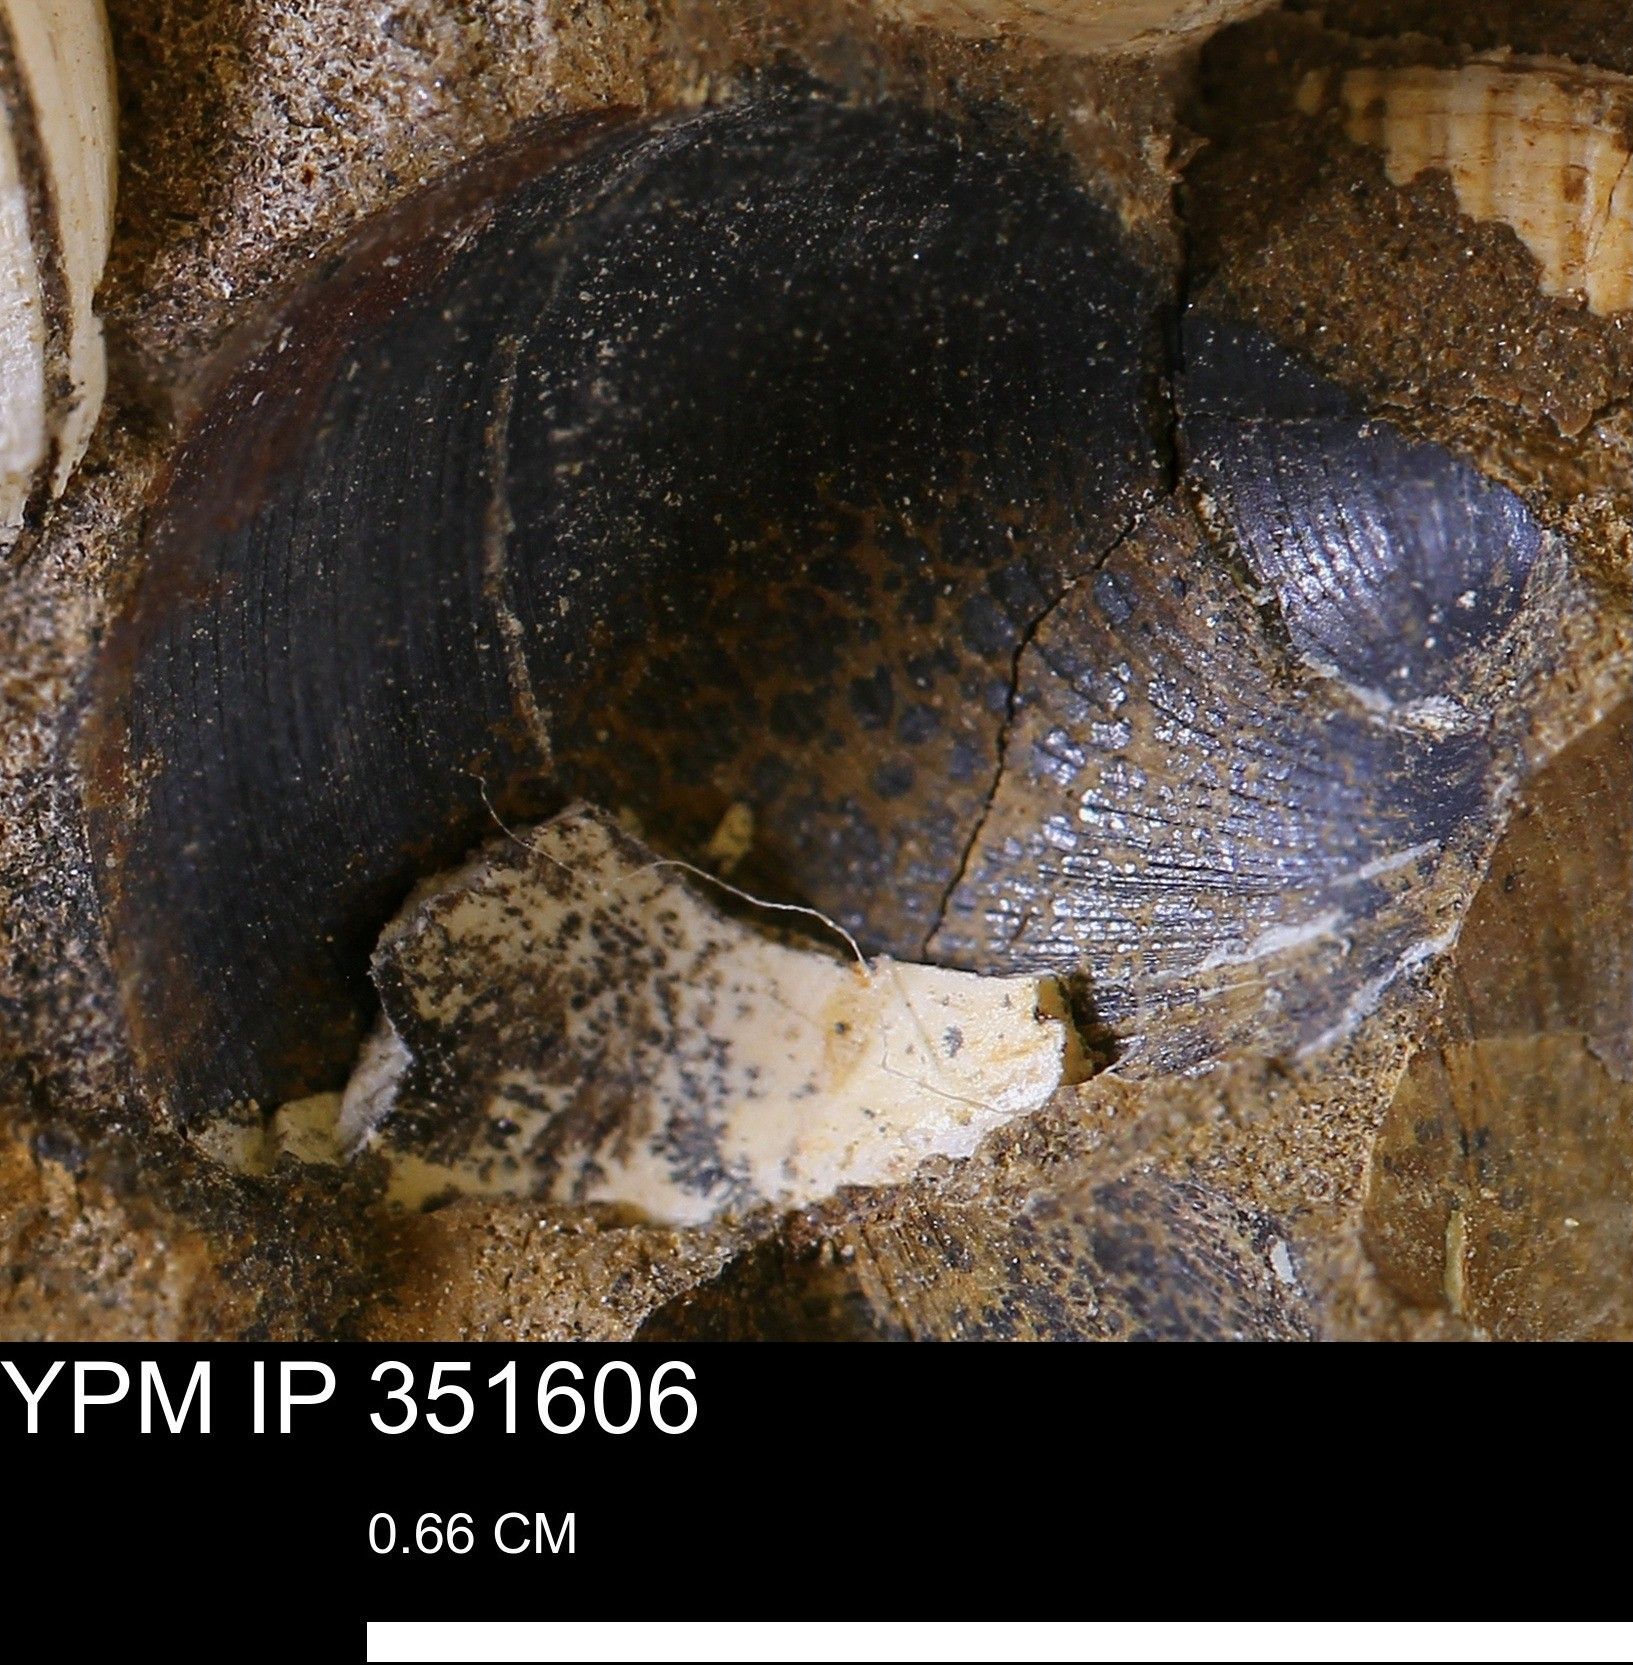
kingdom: Animalia
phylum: Mollusca
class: Bivalvia
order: Arcida
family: Limopsidae
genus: Limopsis
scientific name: Limopsis
